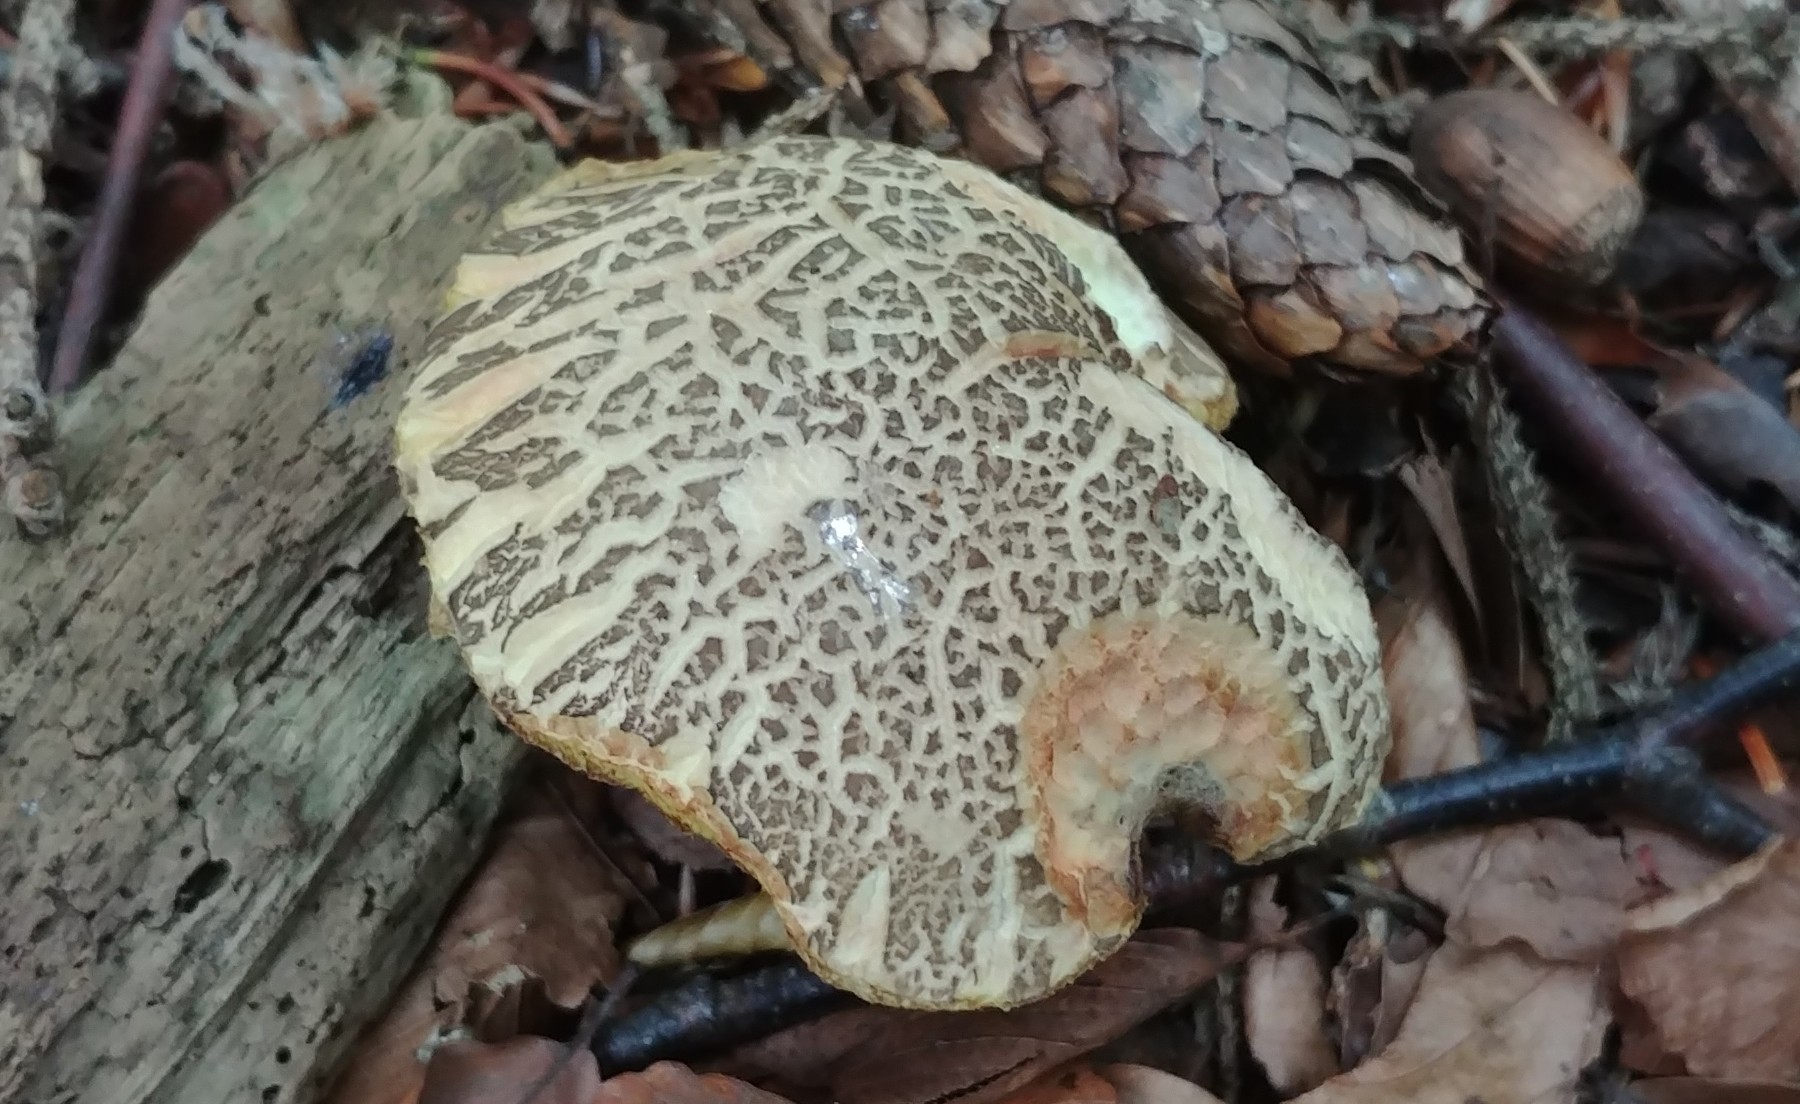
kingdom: Fungi
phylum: Basidiomycota
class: Agaricomycetes
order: Boletales
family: Boletaceae
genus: Xerocomellus
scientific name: Xerocomellus porosporus
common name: hvidsprukken rørhat
